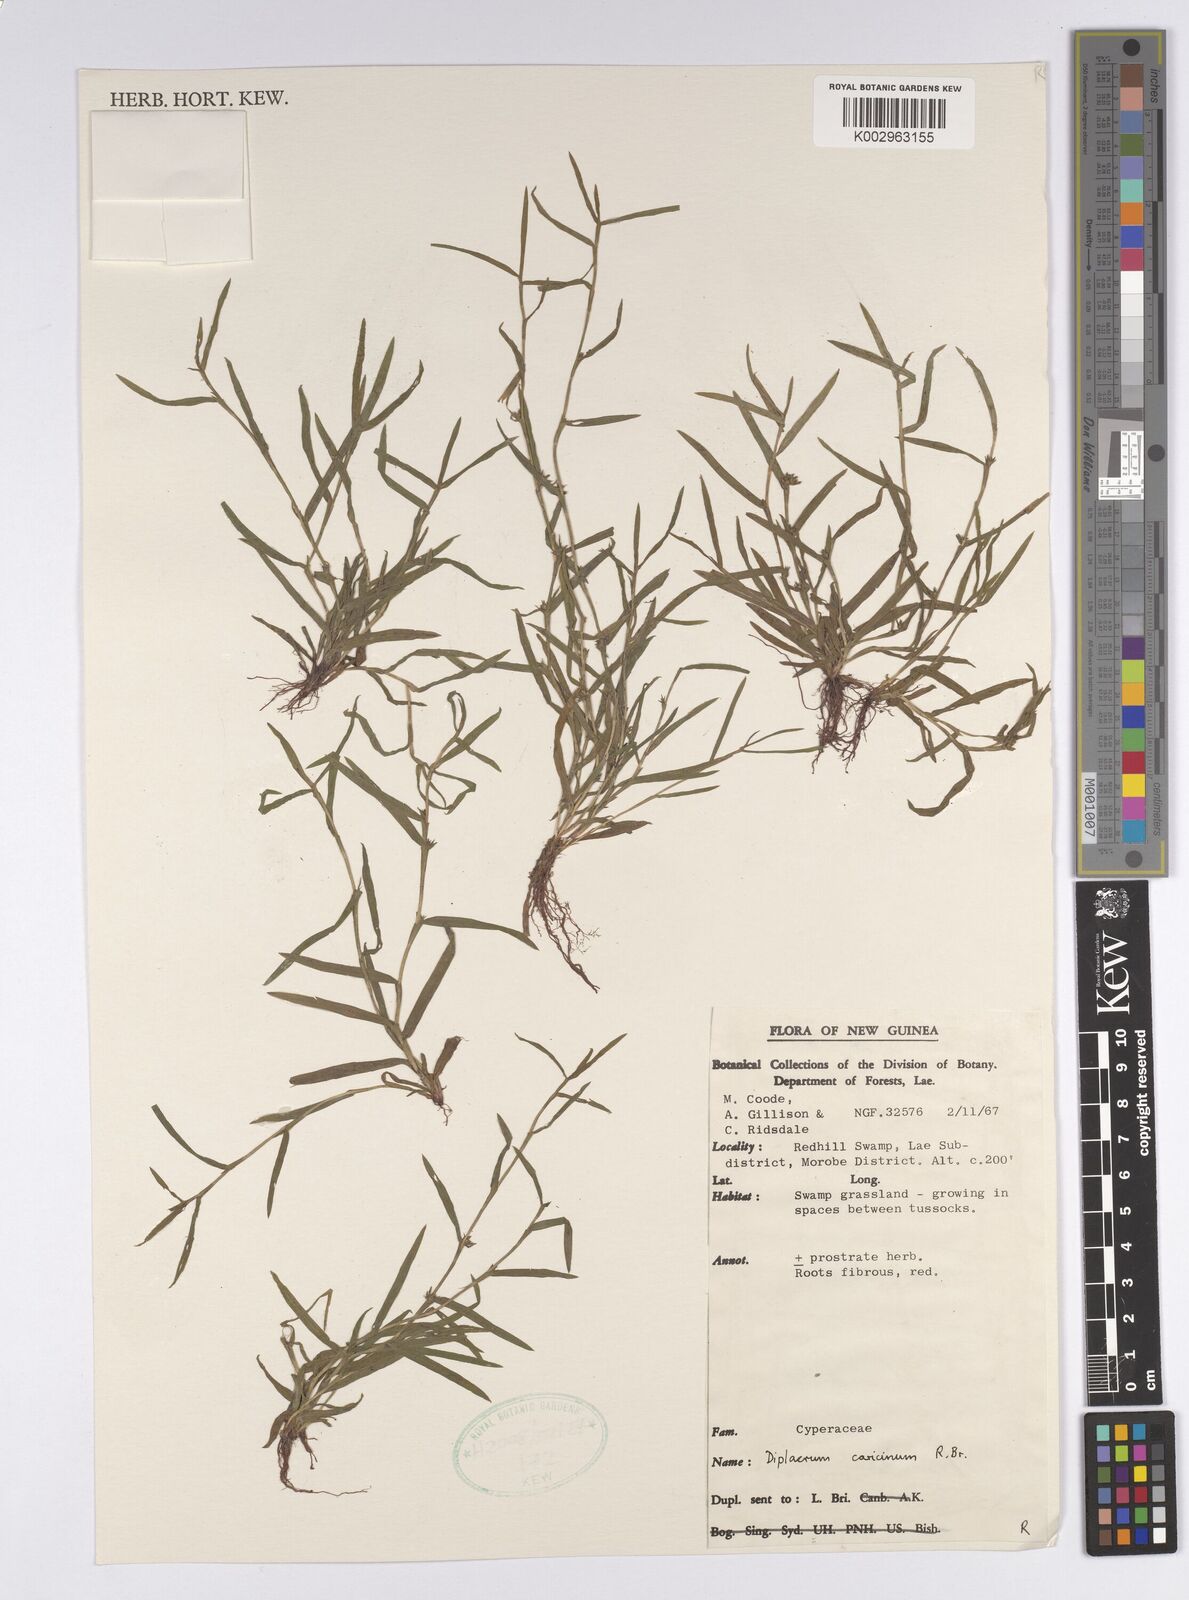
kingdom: Plantae
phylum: Tracheophyta
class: Liliopsida
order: Poales
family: Cyperaceae
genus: Diplacrum
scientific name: Diplacrum caricinum
